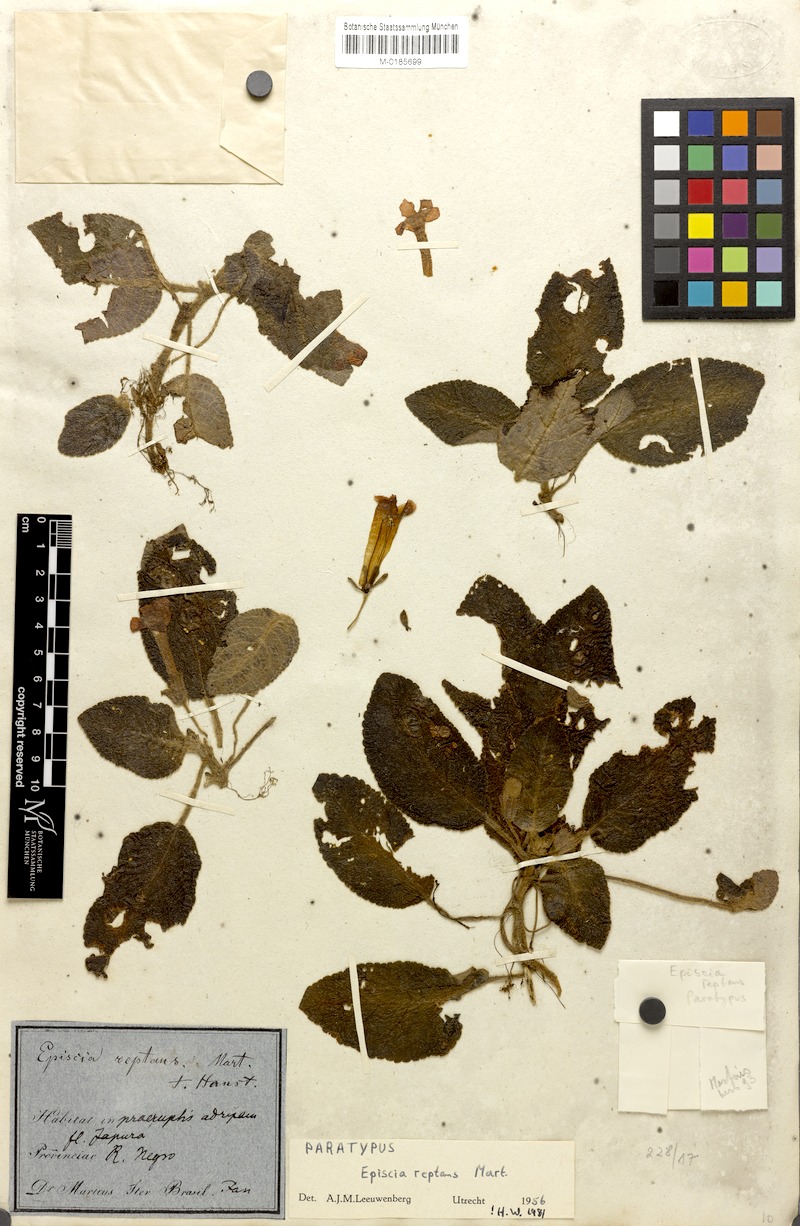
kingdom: Plantae
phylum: Tracheophyta
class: Magnoliopsida
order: Lamiales
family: Gesneriaceae
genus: Episcia
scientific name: Episcia reptans
